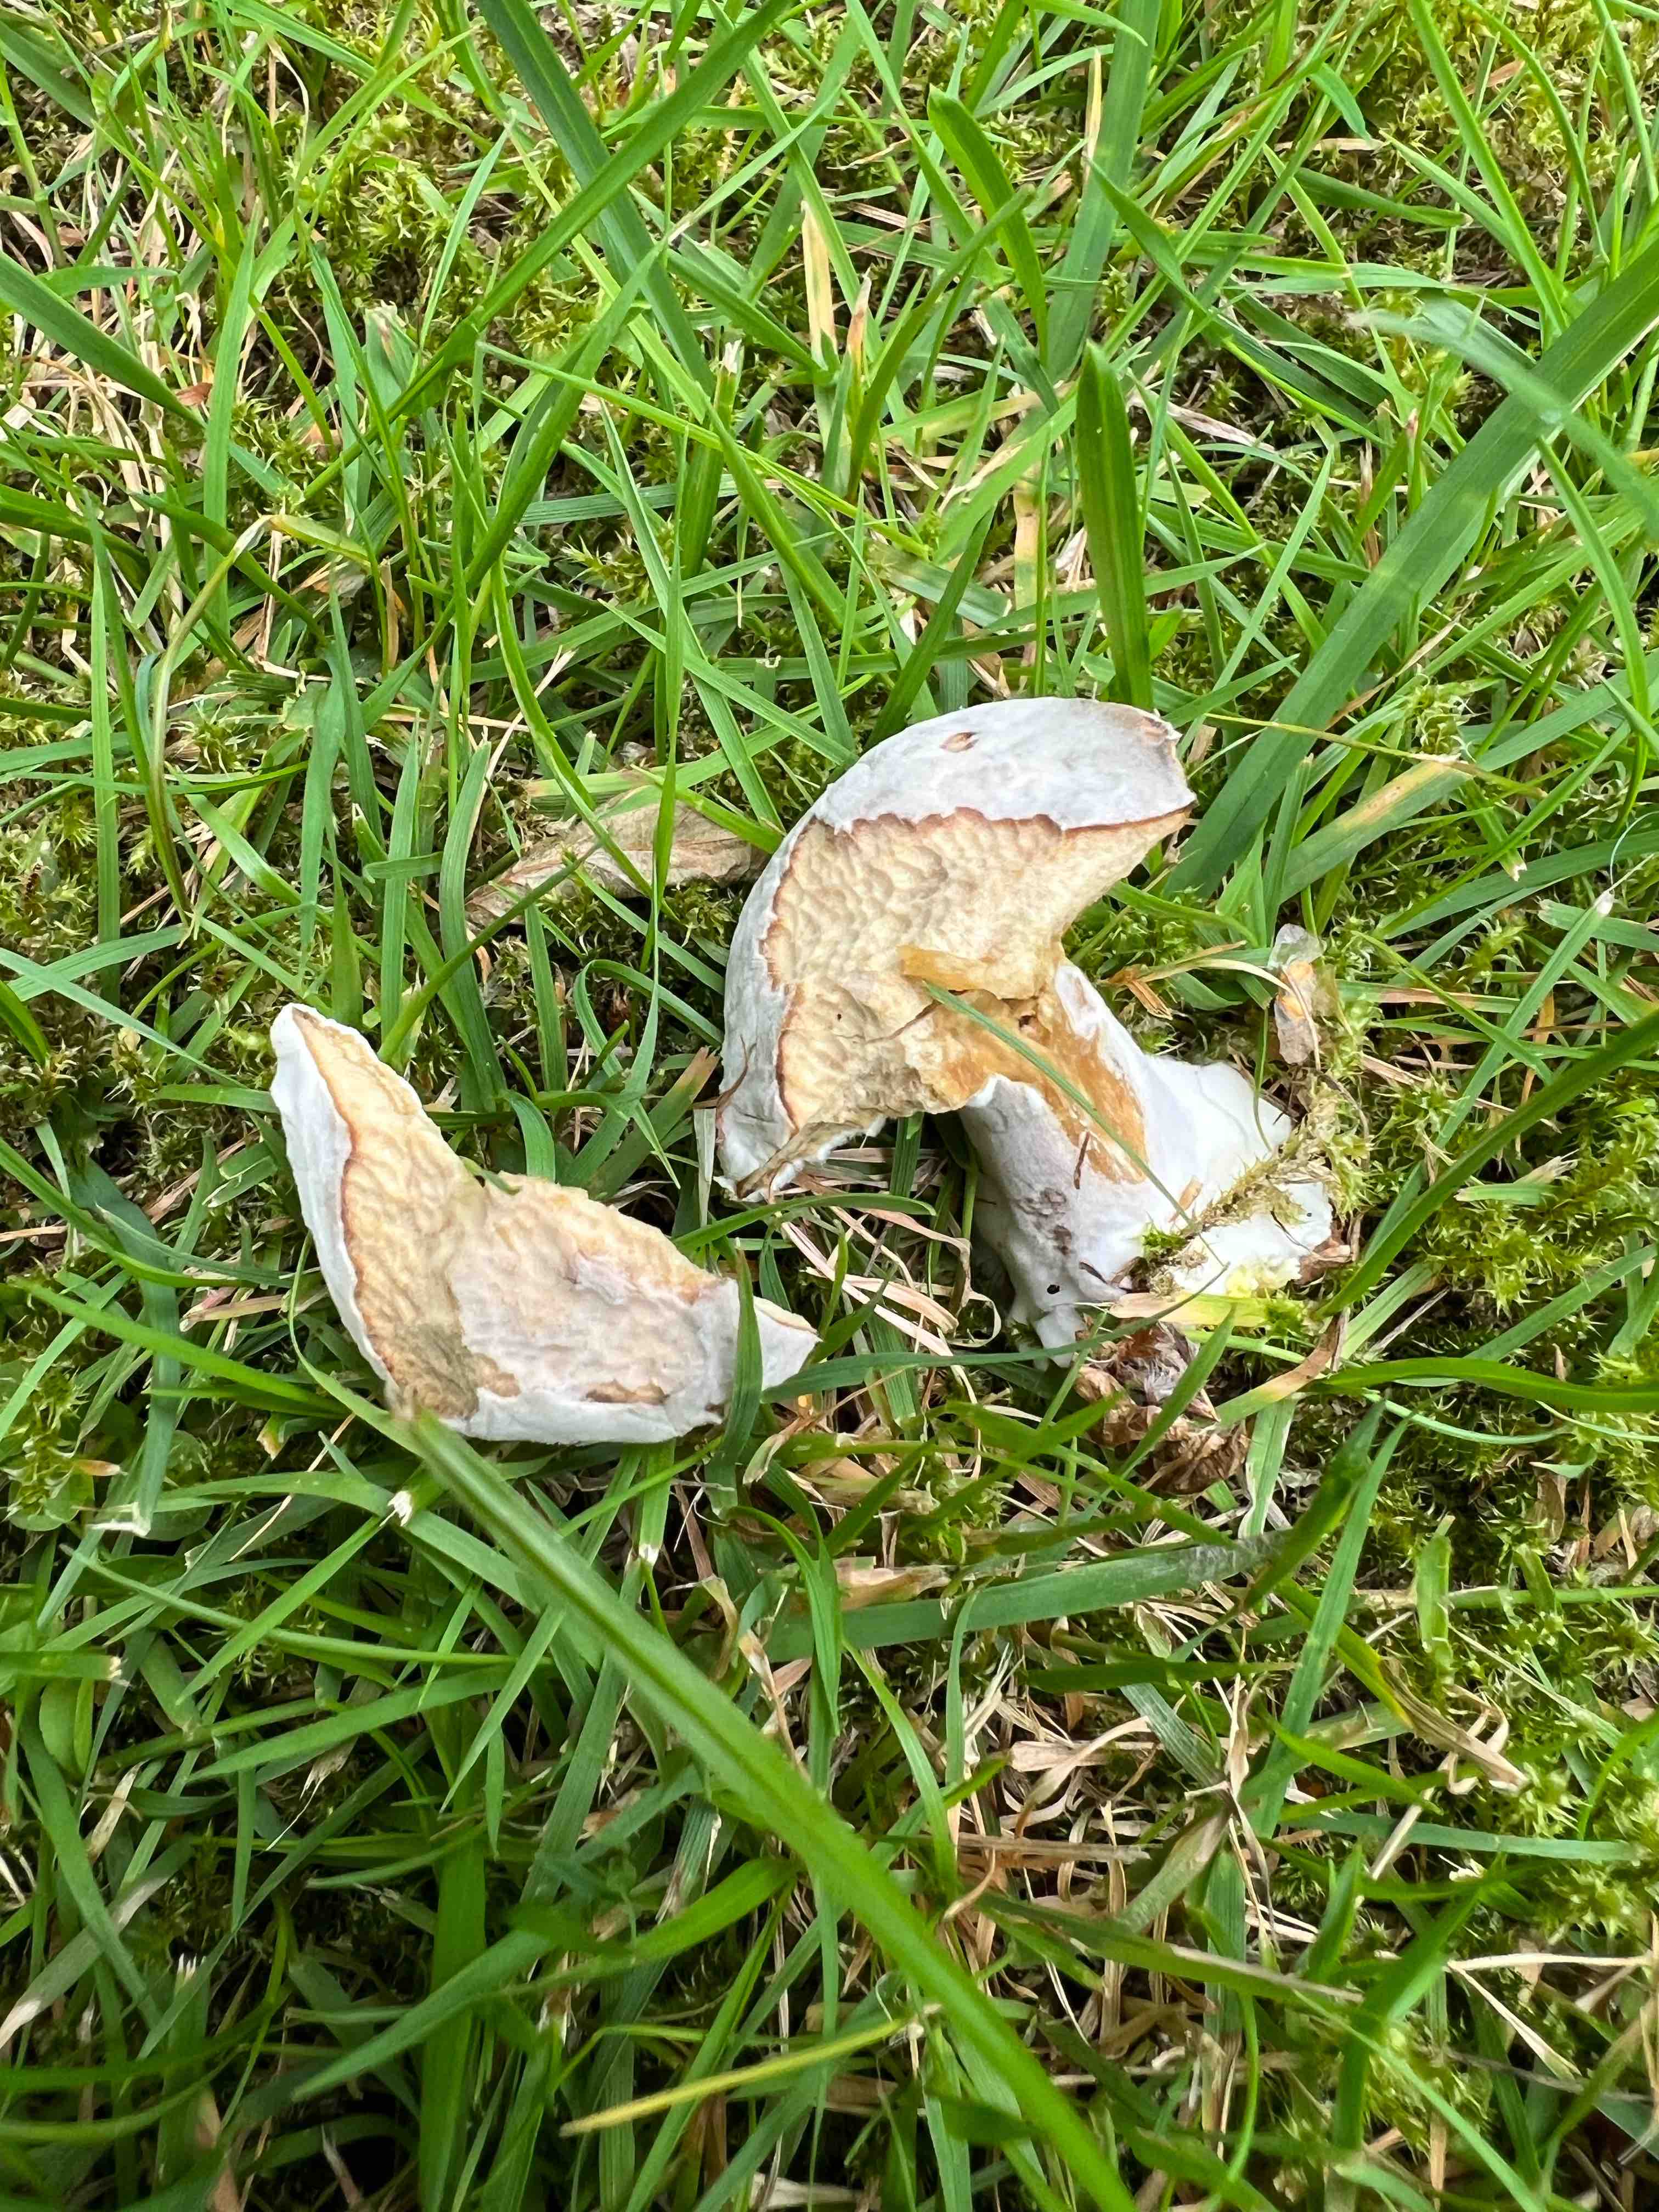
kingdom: Fungi
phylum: Ascomycota
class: Sordariomycetes
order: Hypocreales
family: Hypocreaceae
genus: Hypomyces
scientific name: Hypomyces microspermus
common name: dværgrørhat-snylteskorpe
